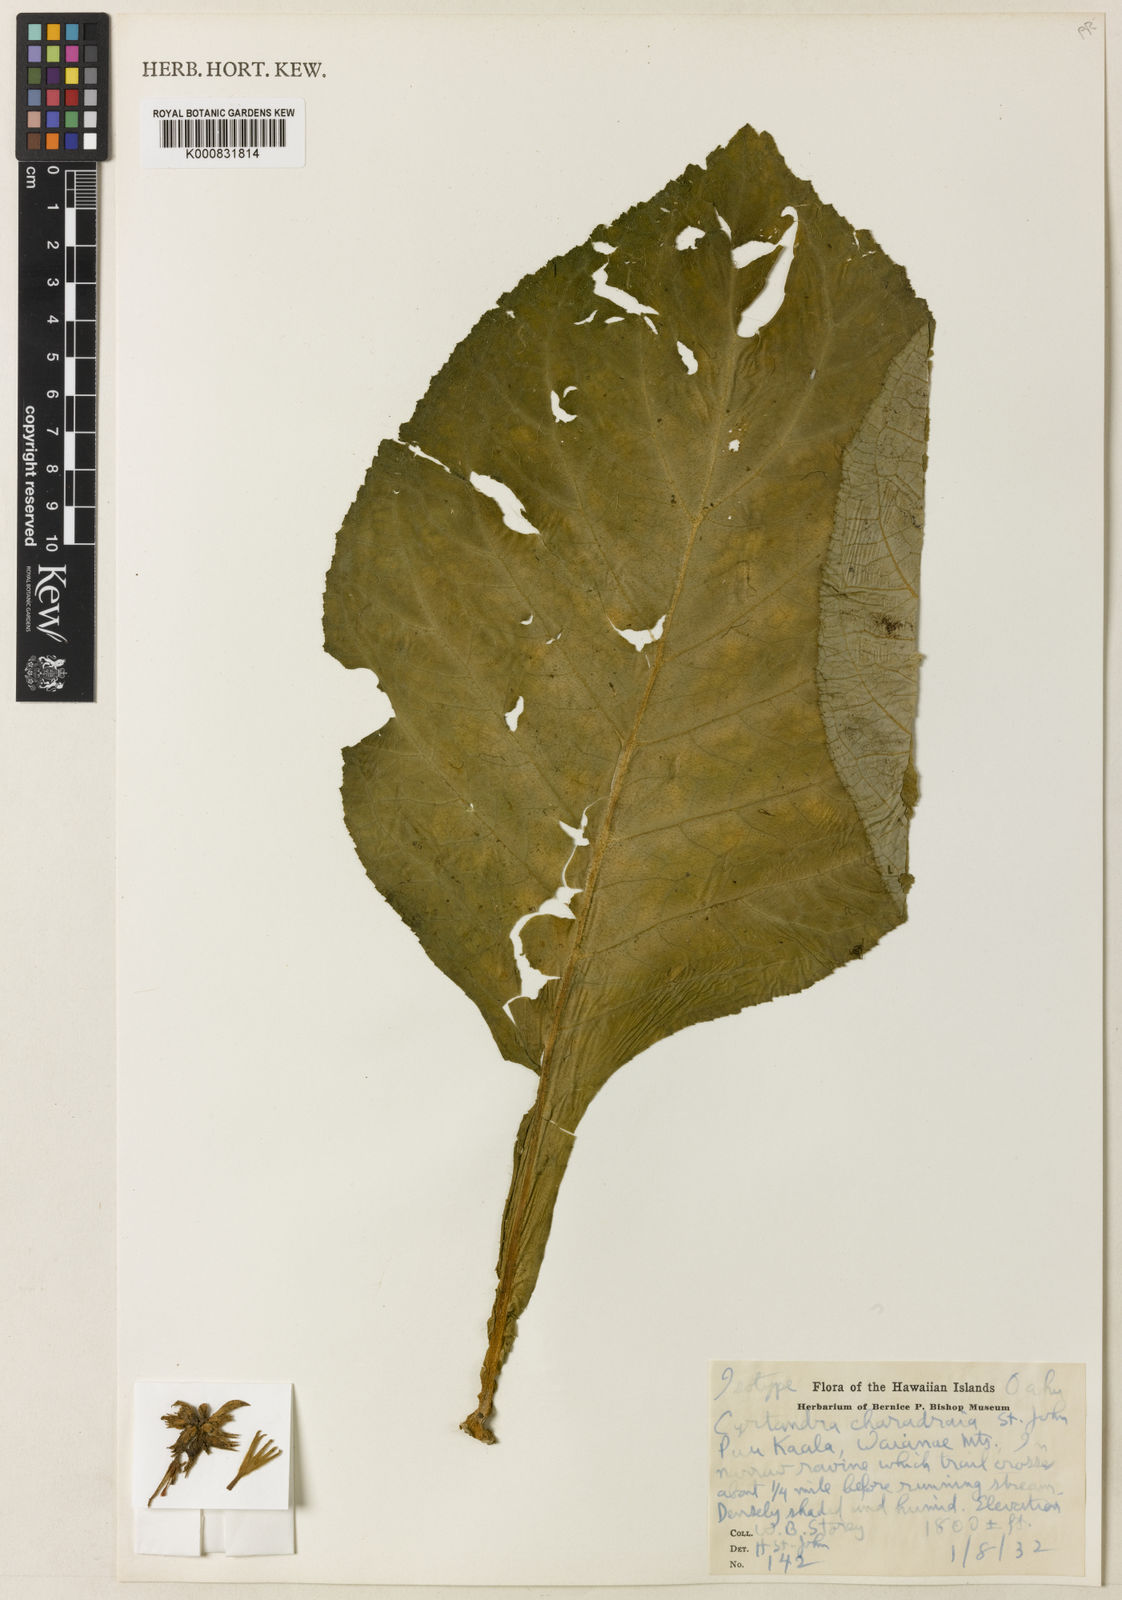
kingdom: Plantae
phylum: Tracheophyta
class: Magnoliopsida
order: Lamiales
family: Gesneriaceae
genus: Cyrtandra
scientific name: Cyrtandra kalichii
